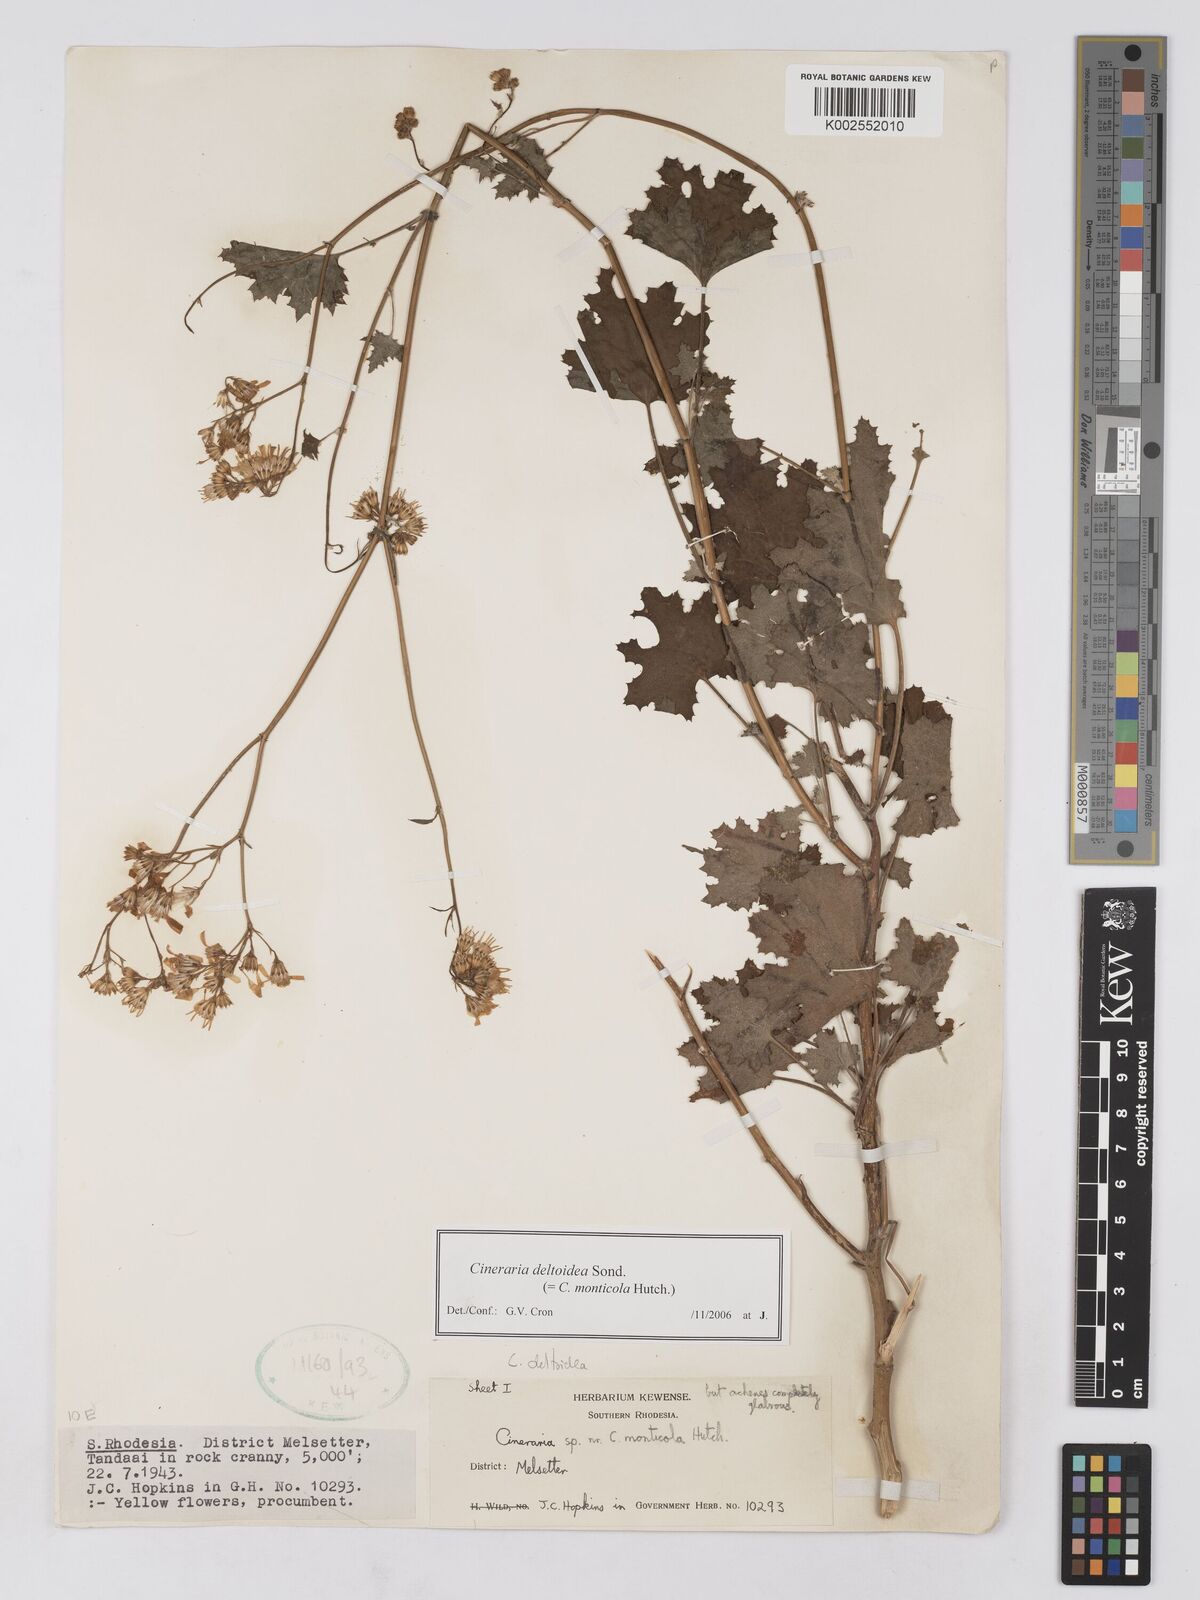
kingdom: Plantae
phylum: Tracheophyta
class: Magnoliopsida
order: Asterales
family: Asteraceae
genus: Cineraria
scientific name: Cineraria deltoidea
